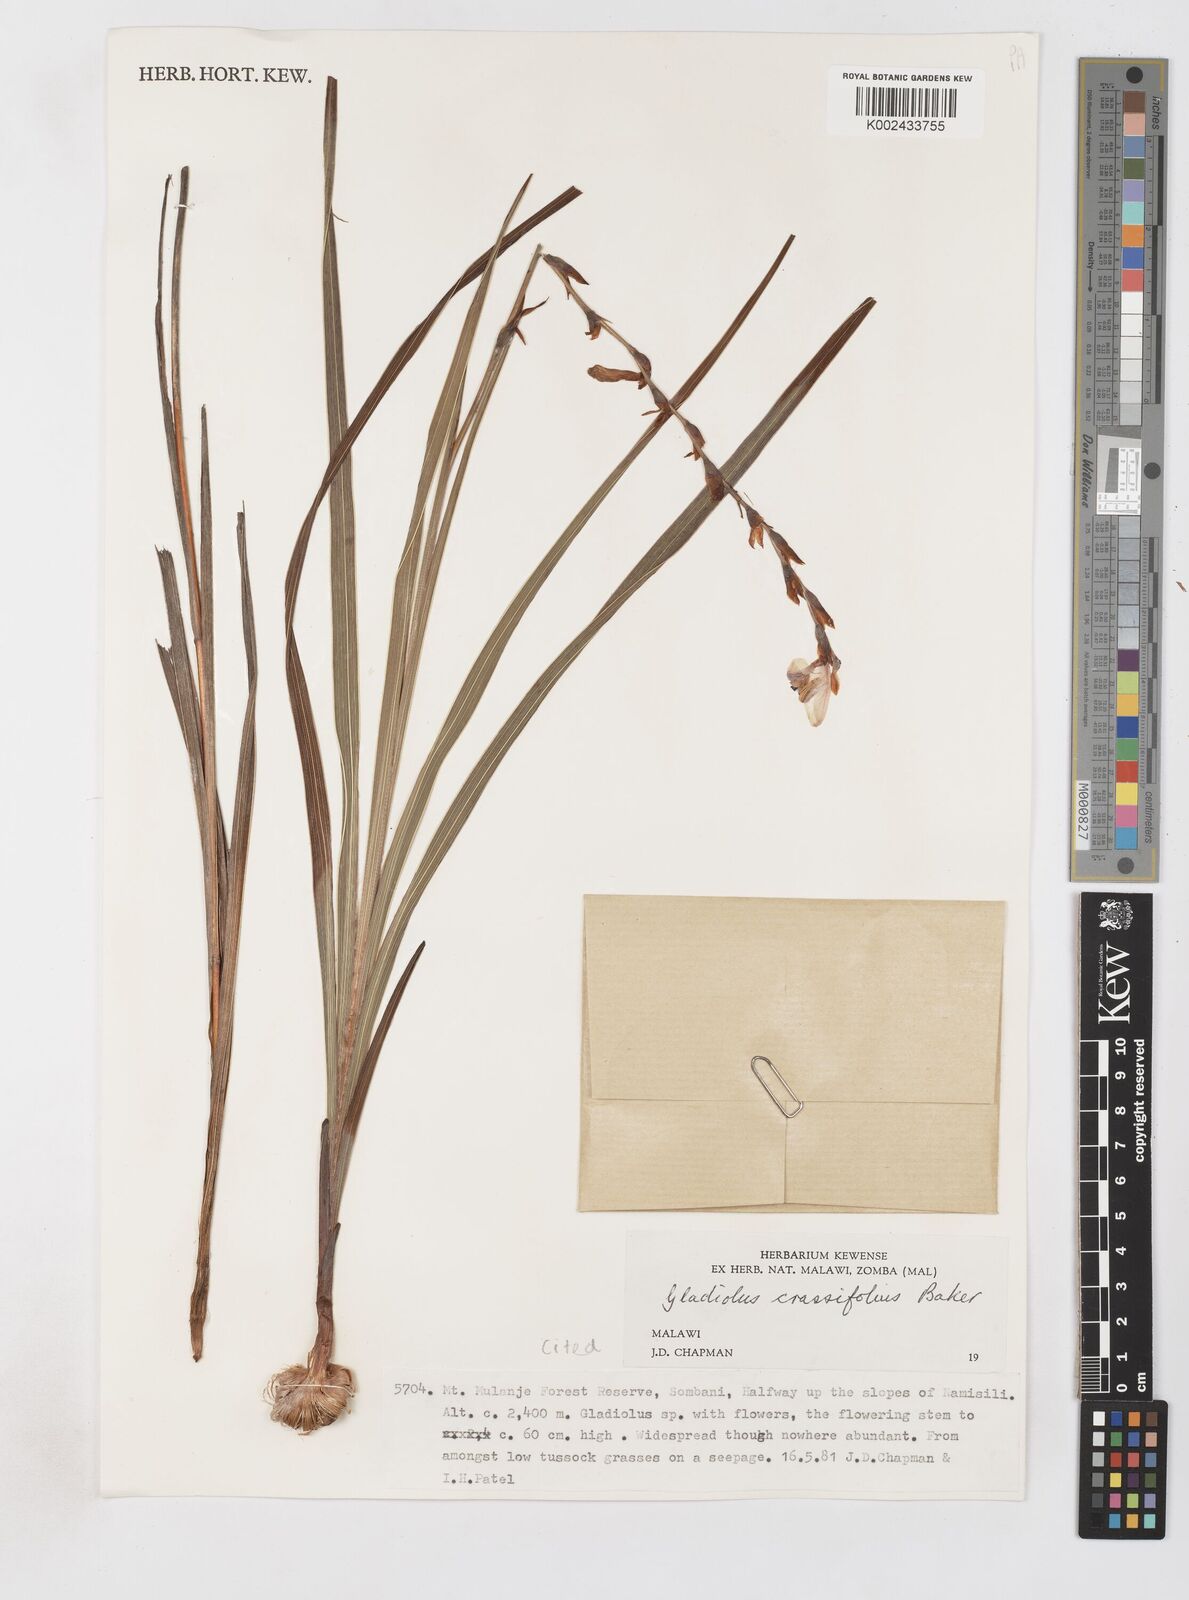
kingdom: Plantae
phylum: Tracheophyta
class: Liliopsida
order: Asparagales
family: Iridaceae
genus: Gladiolus
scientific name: Gladiolus crassifolius
